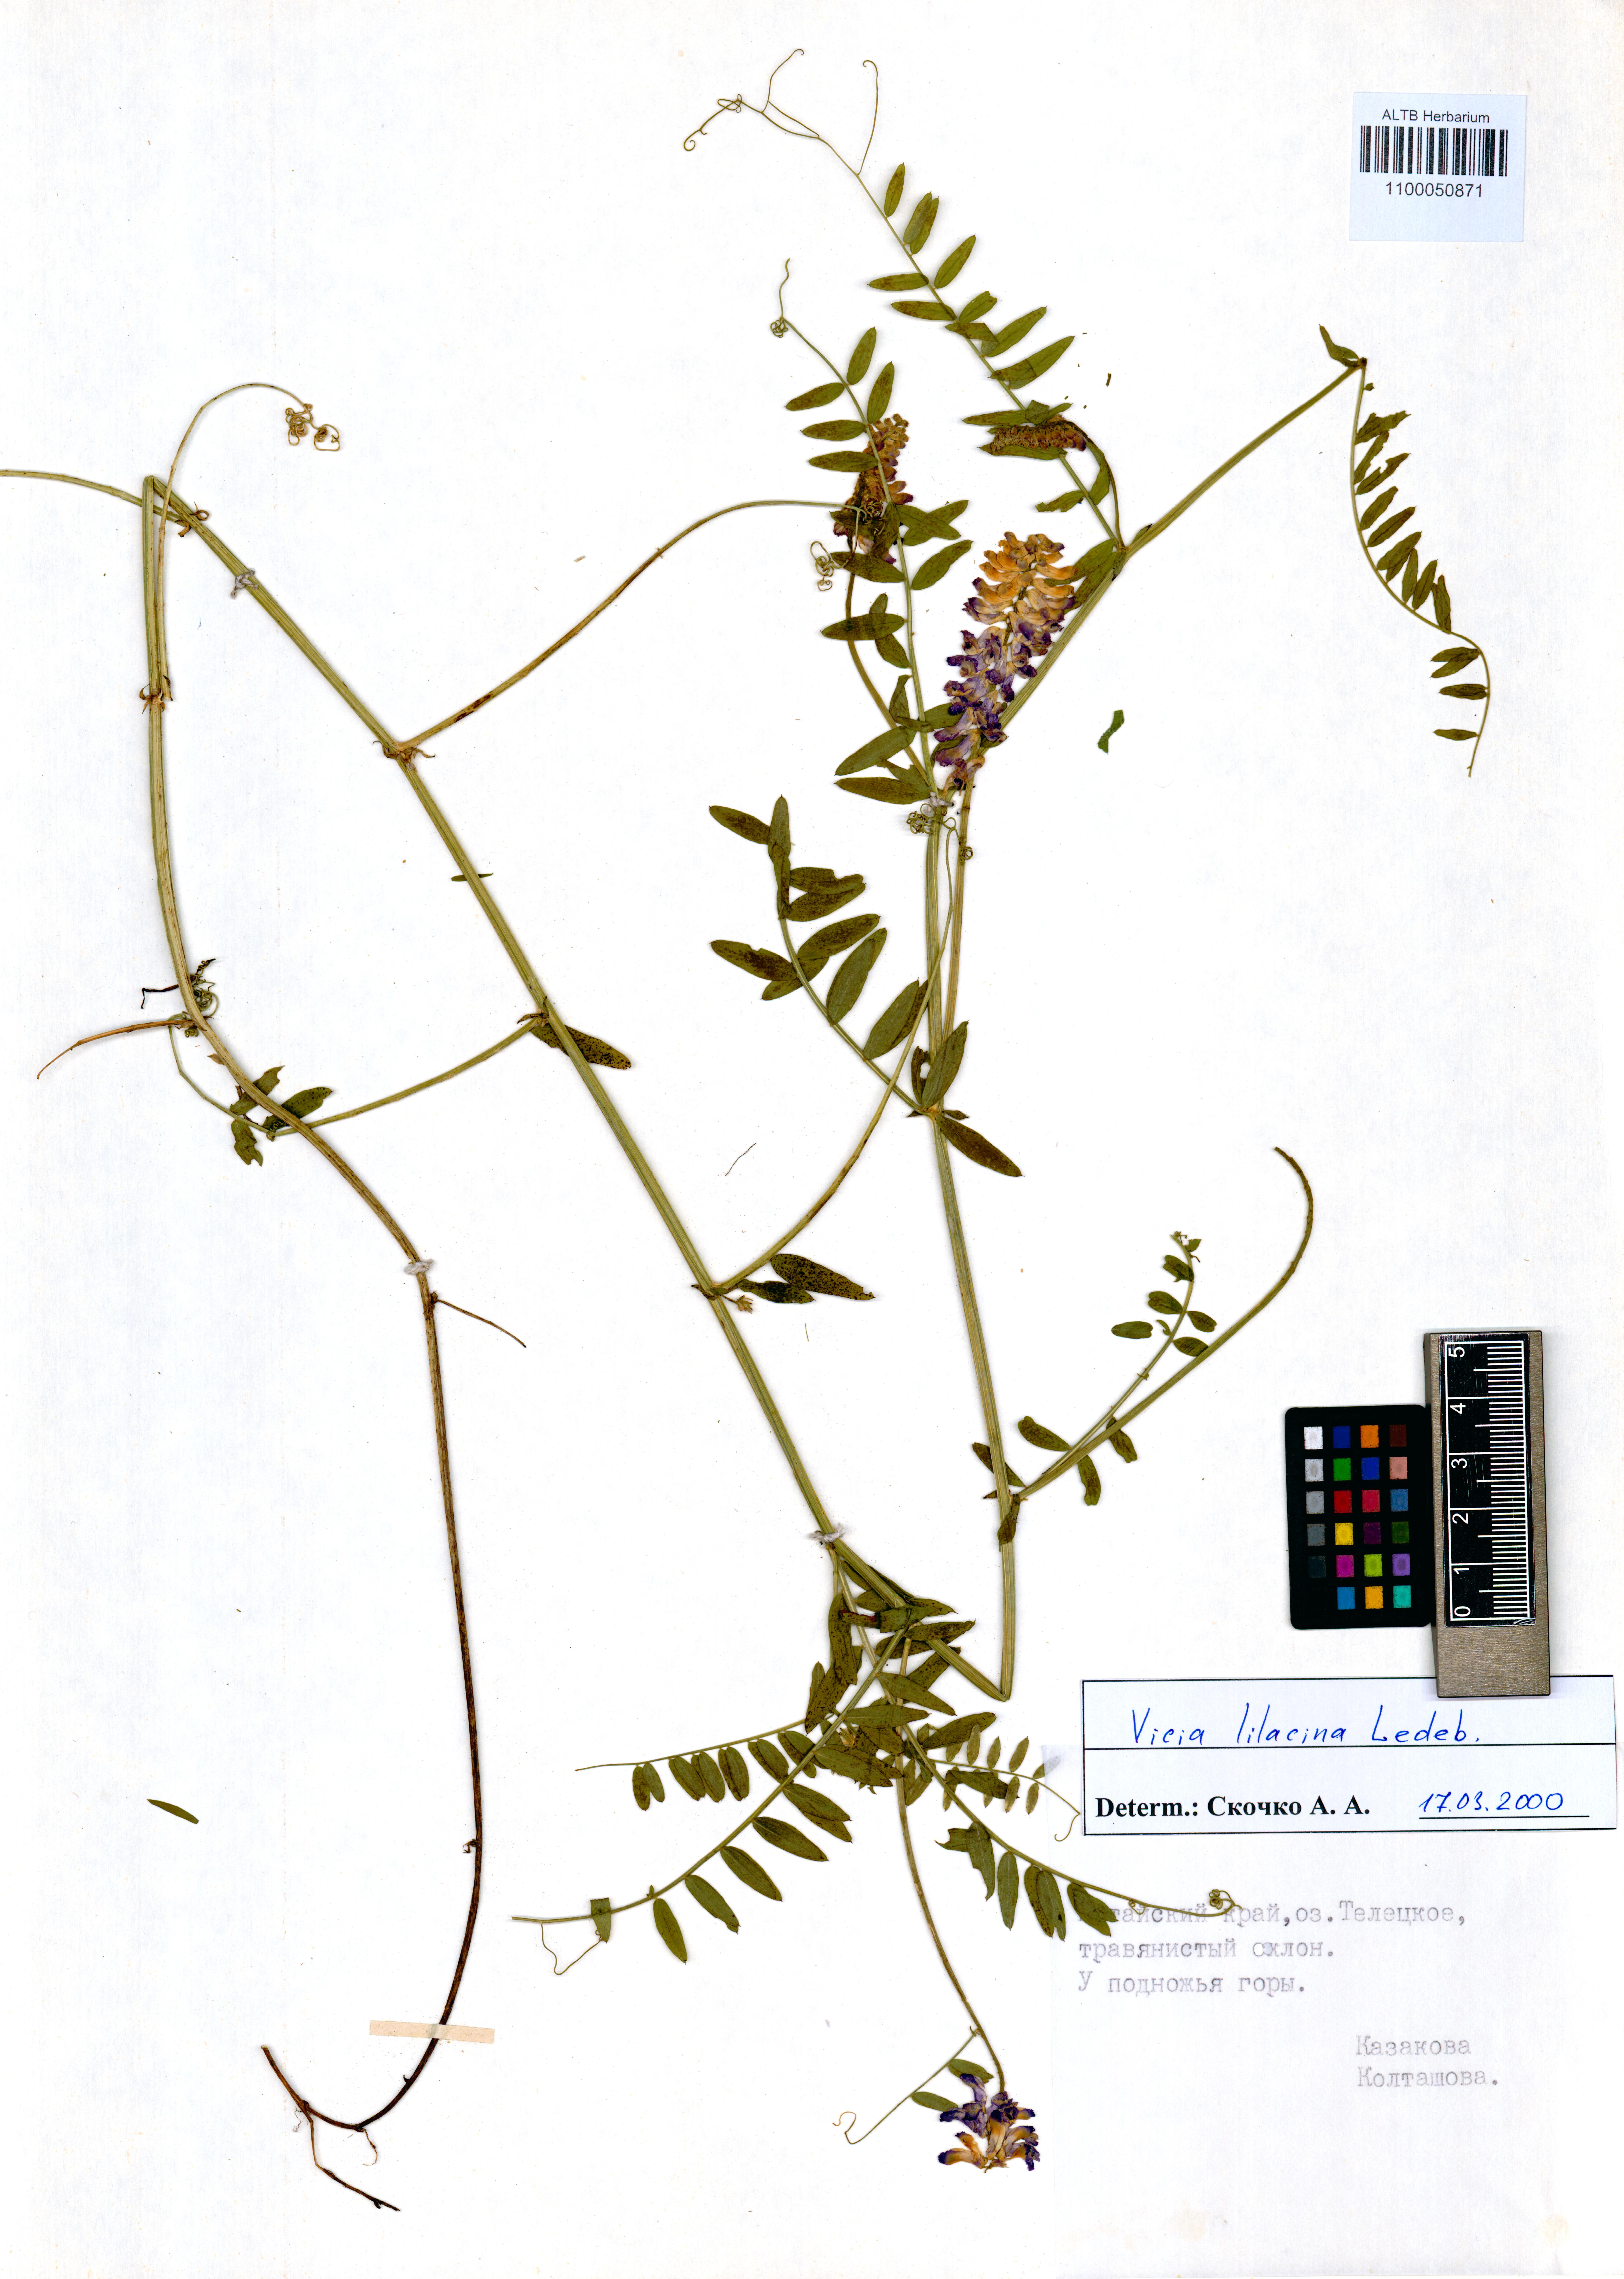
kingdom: Plantae
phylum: Tracheophyta
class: Magnoliopsida
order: Fabales
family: Fabaceae
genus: Vicia
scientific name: Vicia lilacina
